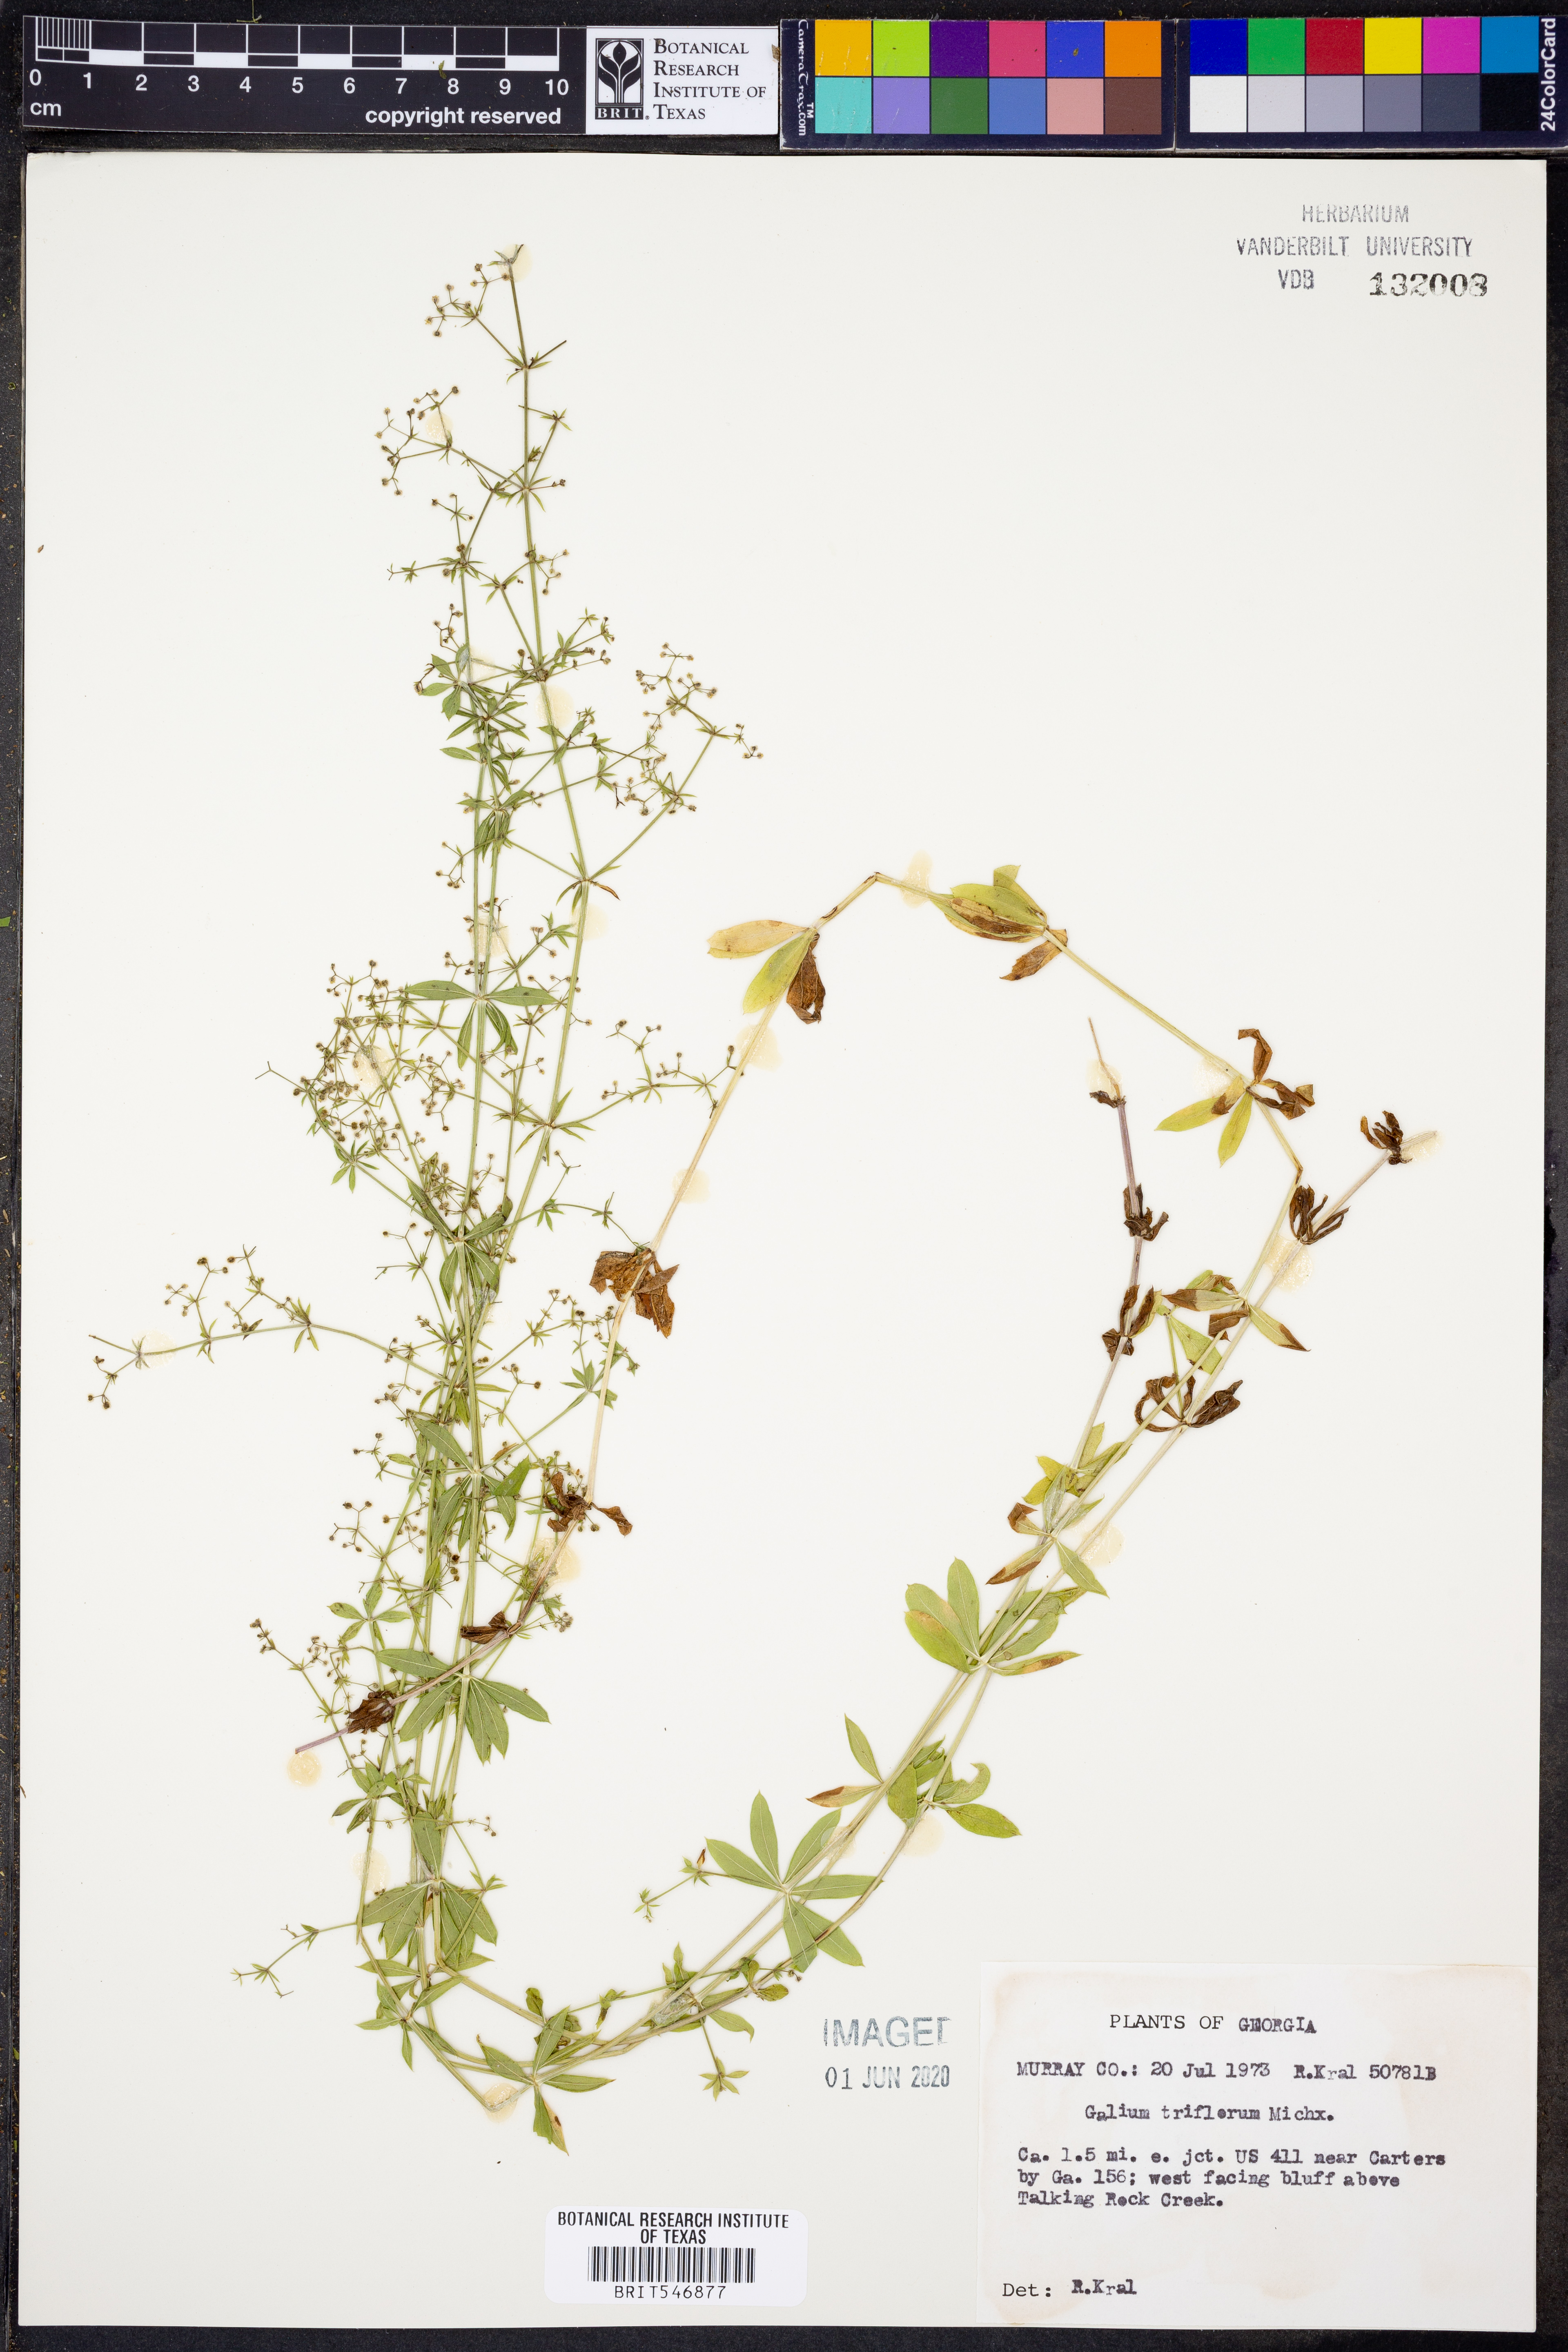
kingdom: Plantae
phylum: Tracheophyta
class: Magnoliopsida
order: Gentianales
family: Rubiaceae
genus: Galium
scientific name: Galium triflorum
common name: Fragrant bedstraw
